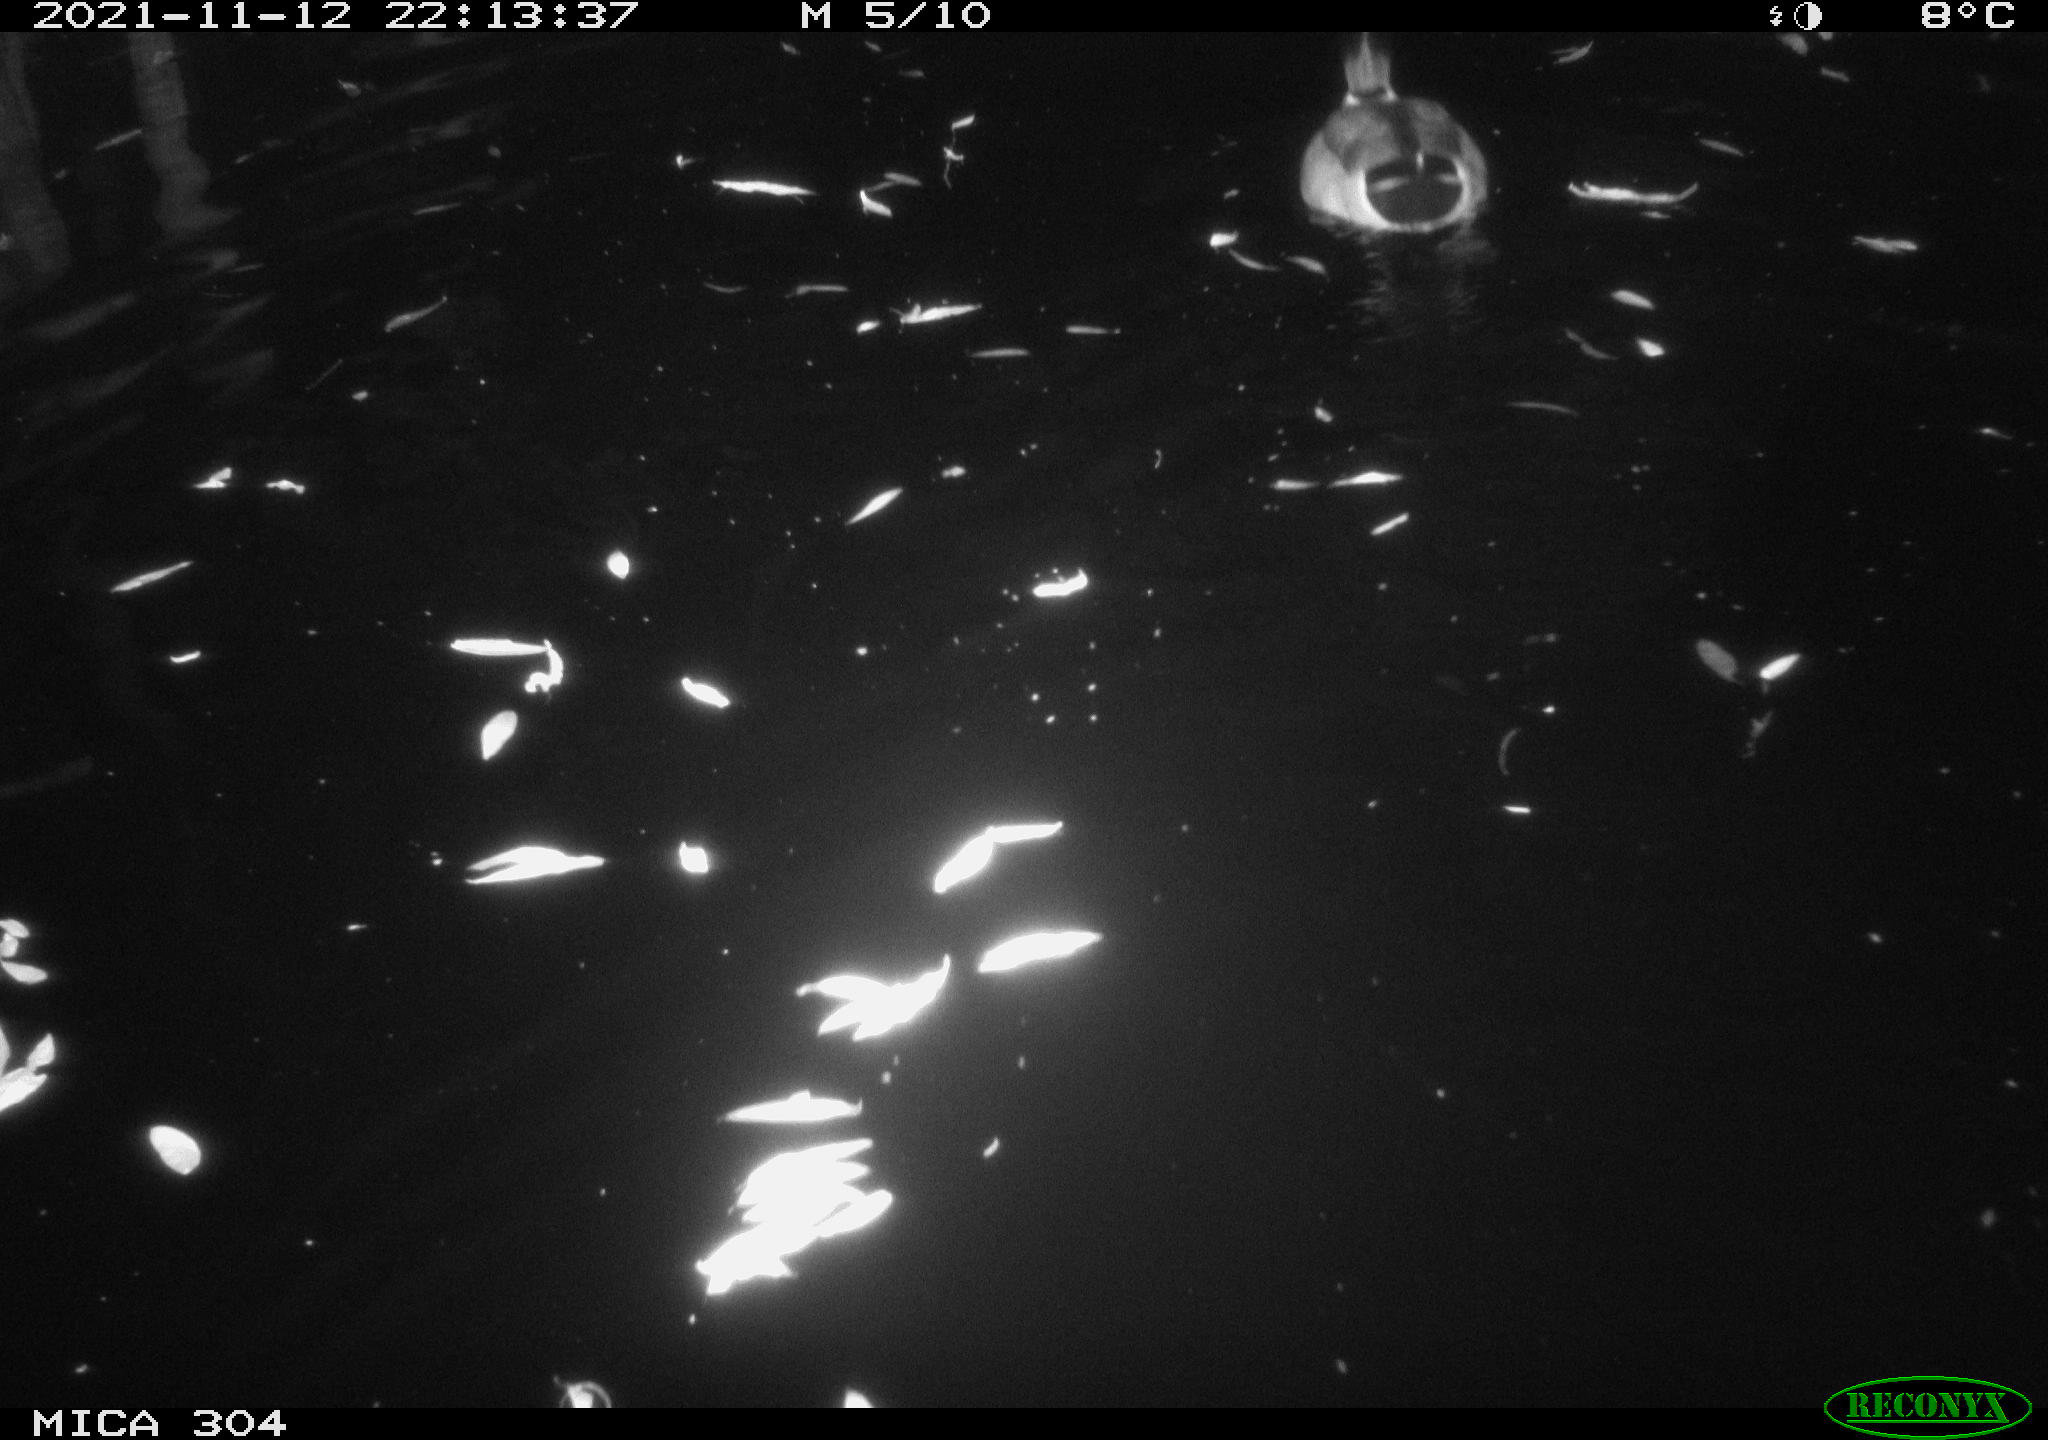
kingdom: Animalia
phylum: Chordata
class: Aves
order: Anseriformes
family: Anatidae
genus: Anas
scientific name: Anas platyrhynchos
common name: Mallard
